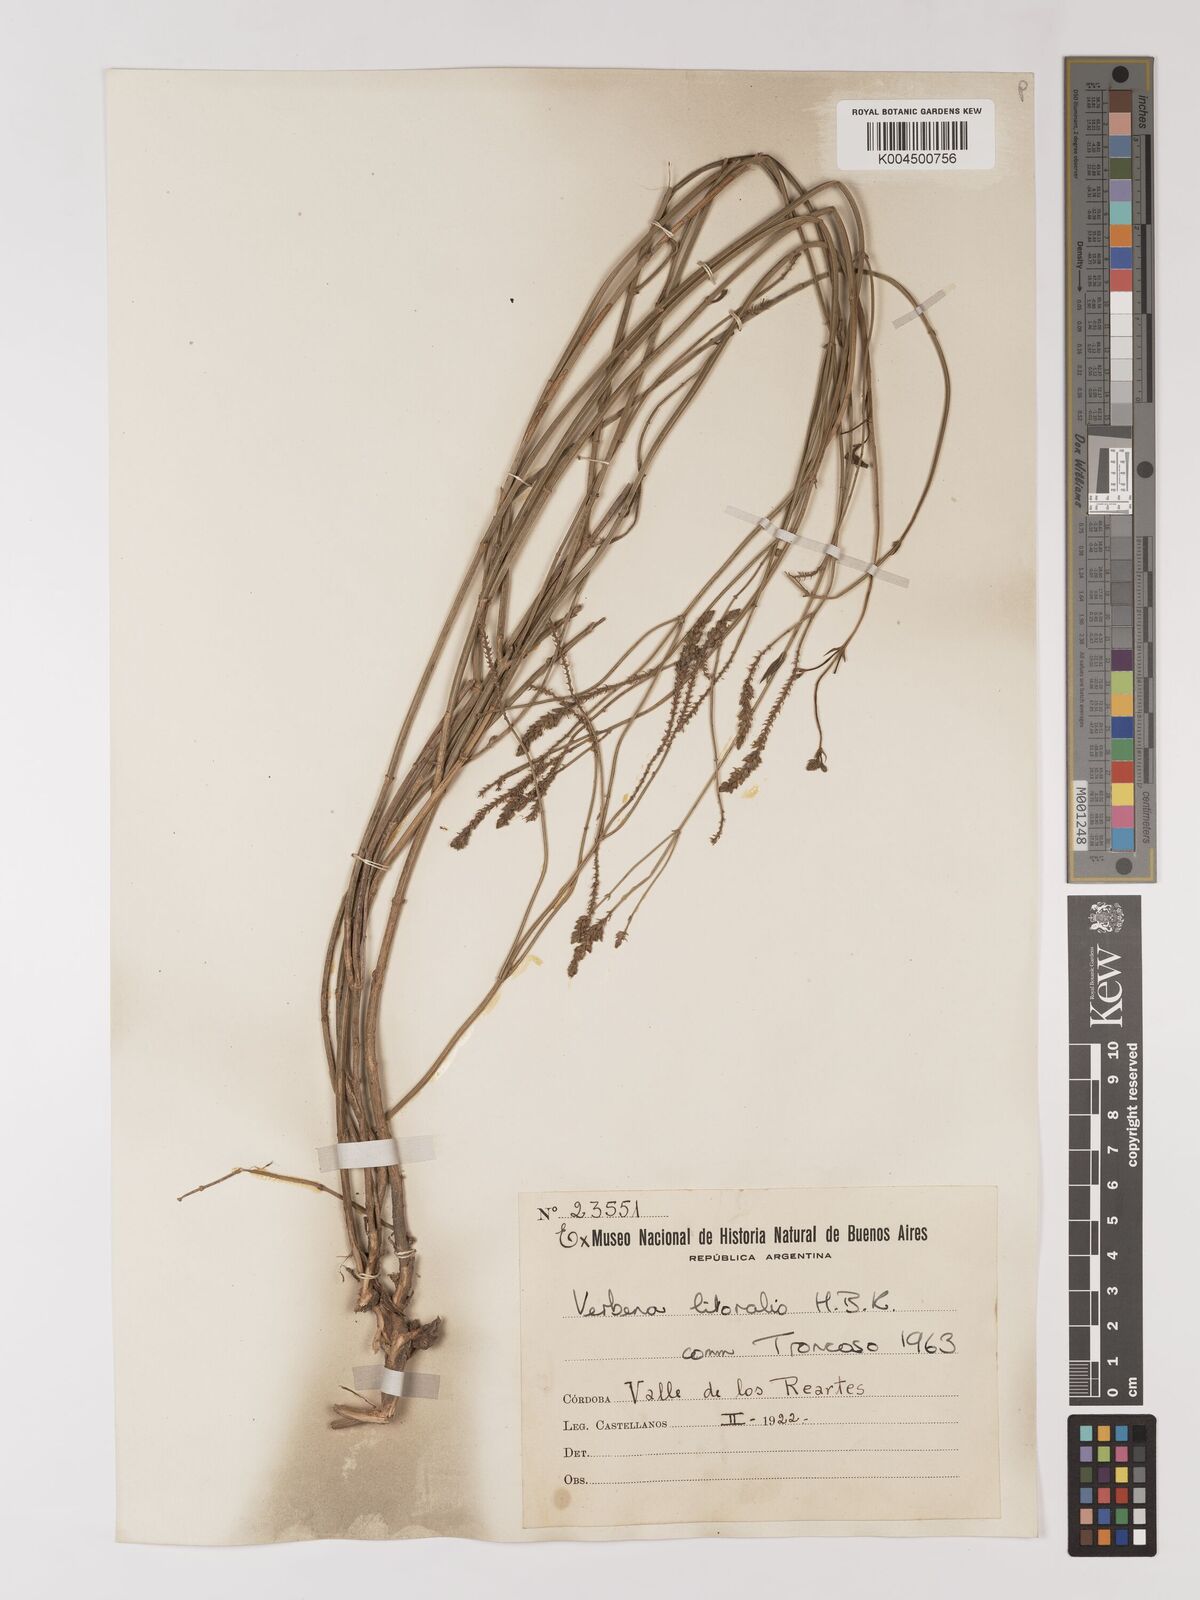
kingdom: Plantae
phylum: Tracheophyta
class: Magnoliopsida
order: Lamiales
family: Verbenaceae
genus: Verbena
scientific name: Verbena litoralis
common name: Seashore vervain
